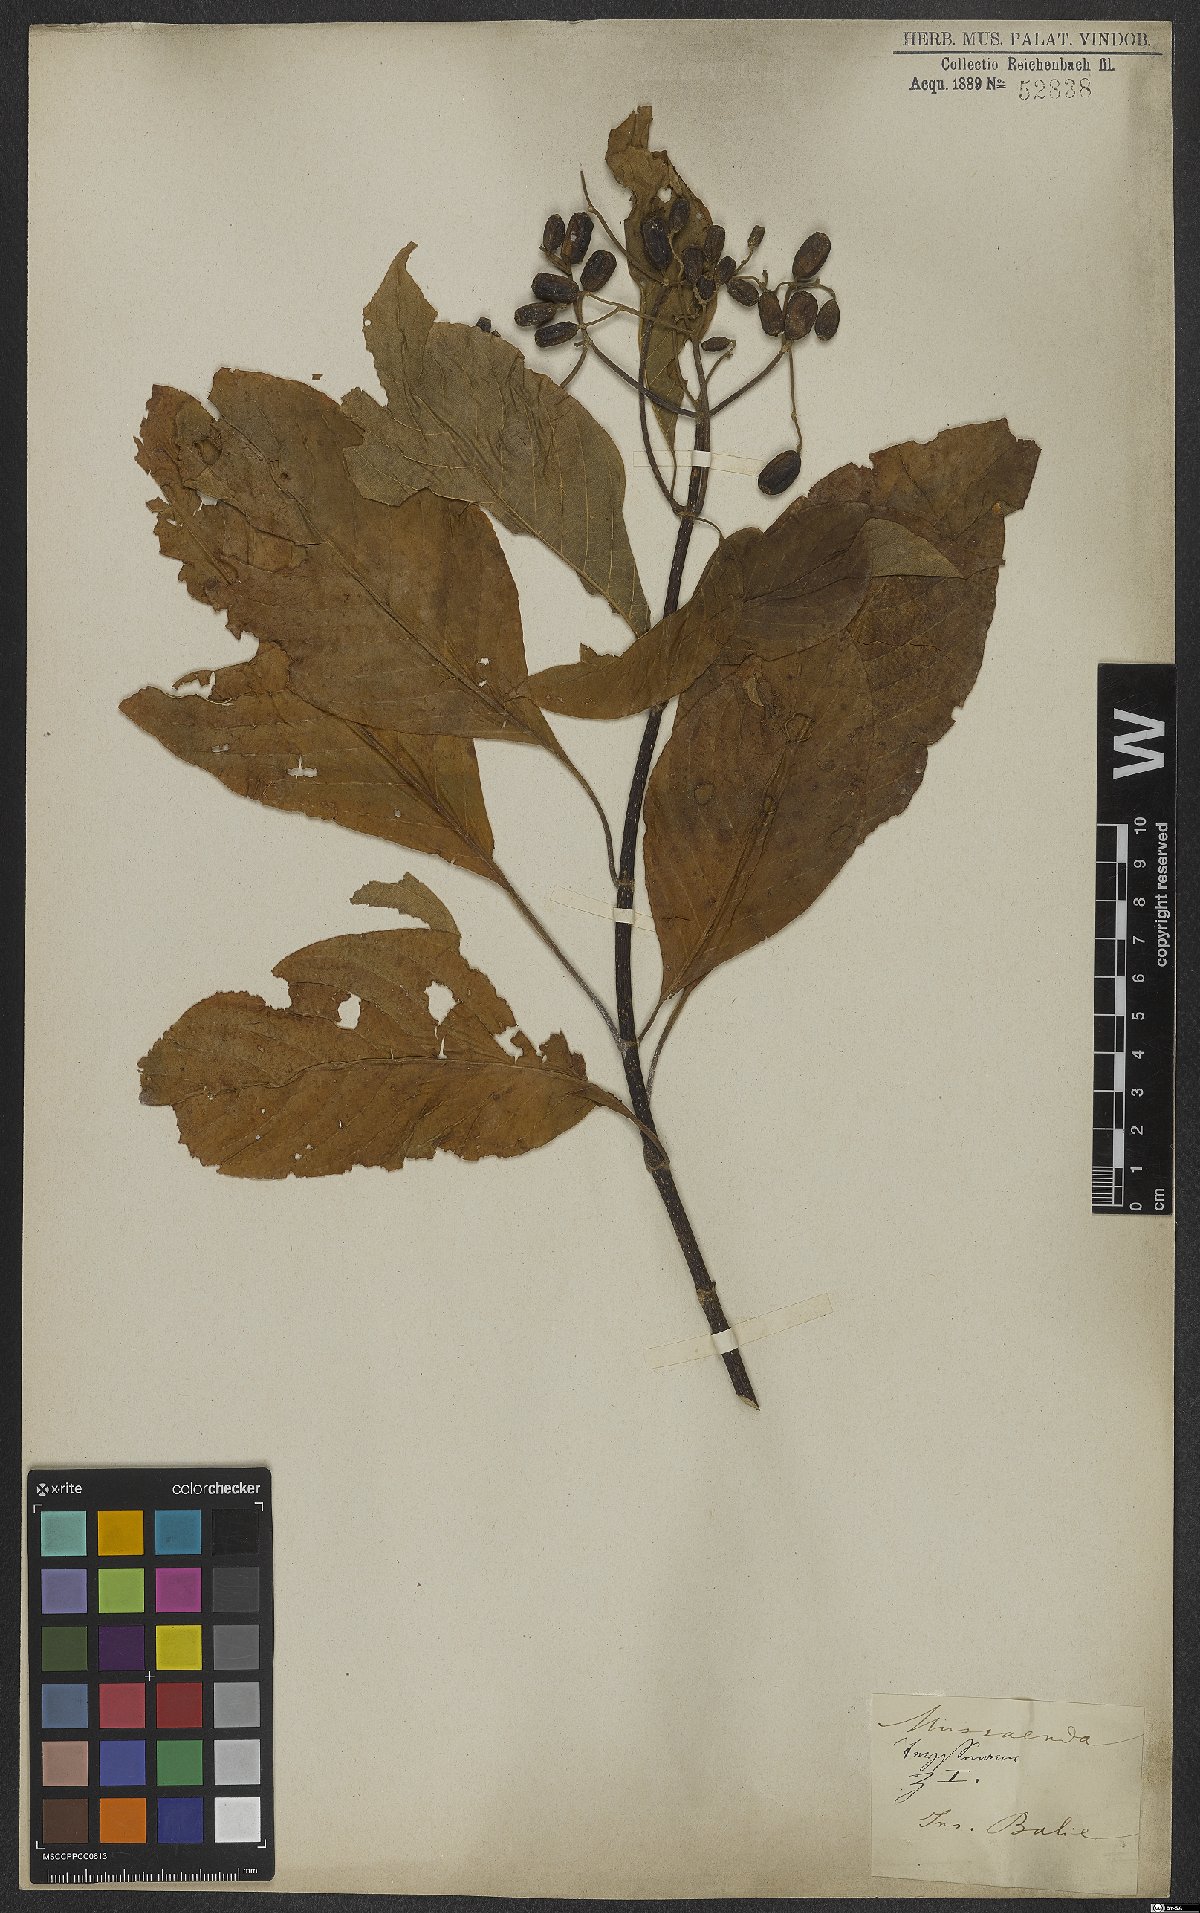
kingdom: Plantae
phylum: Tracheophyta
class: Magnoliopsida
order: Gentianales
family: Rubiaceae
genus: Mussaenda
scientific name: Mussaenda
